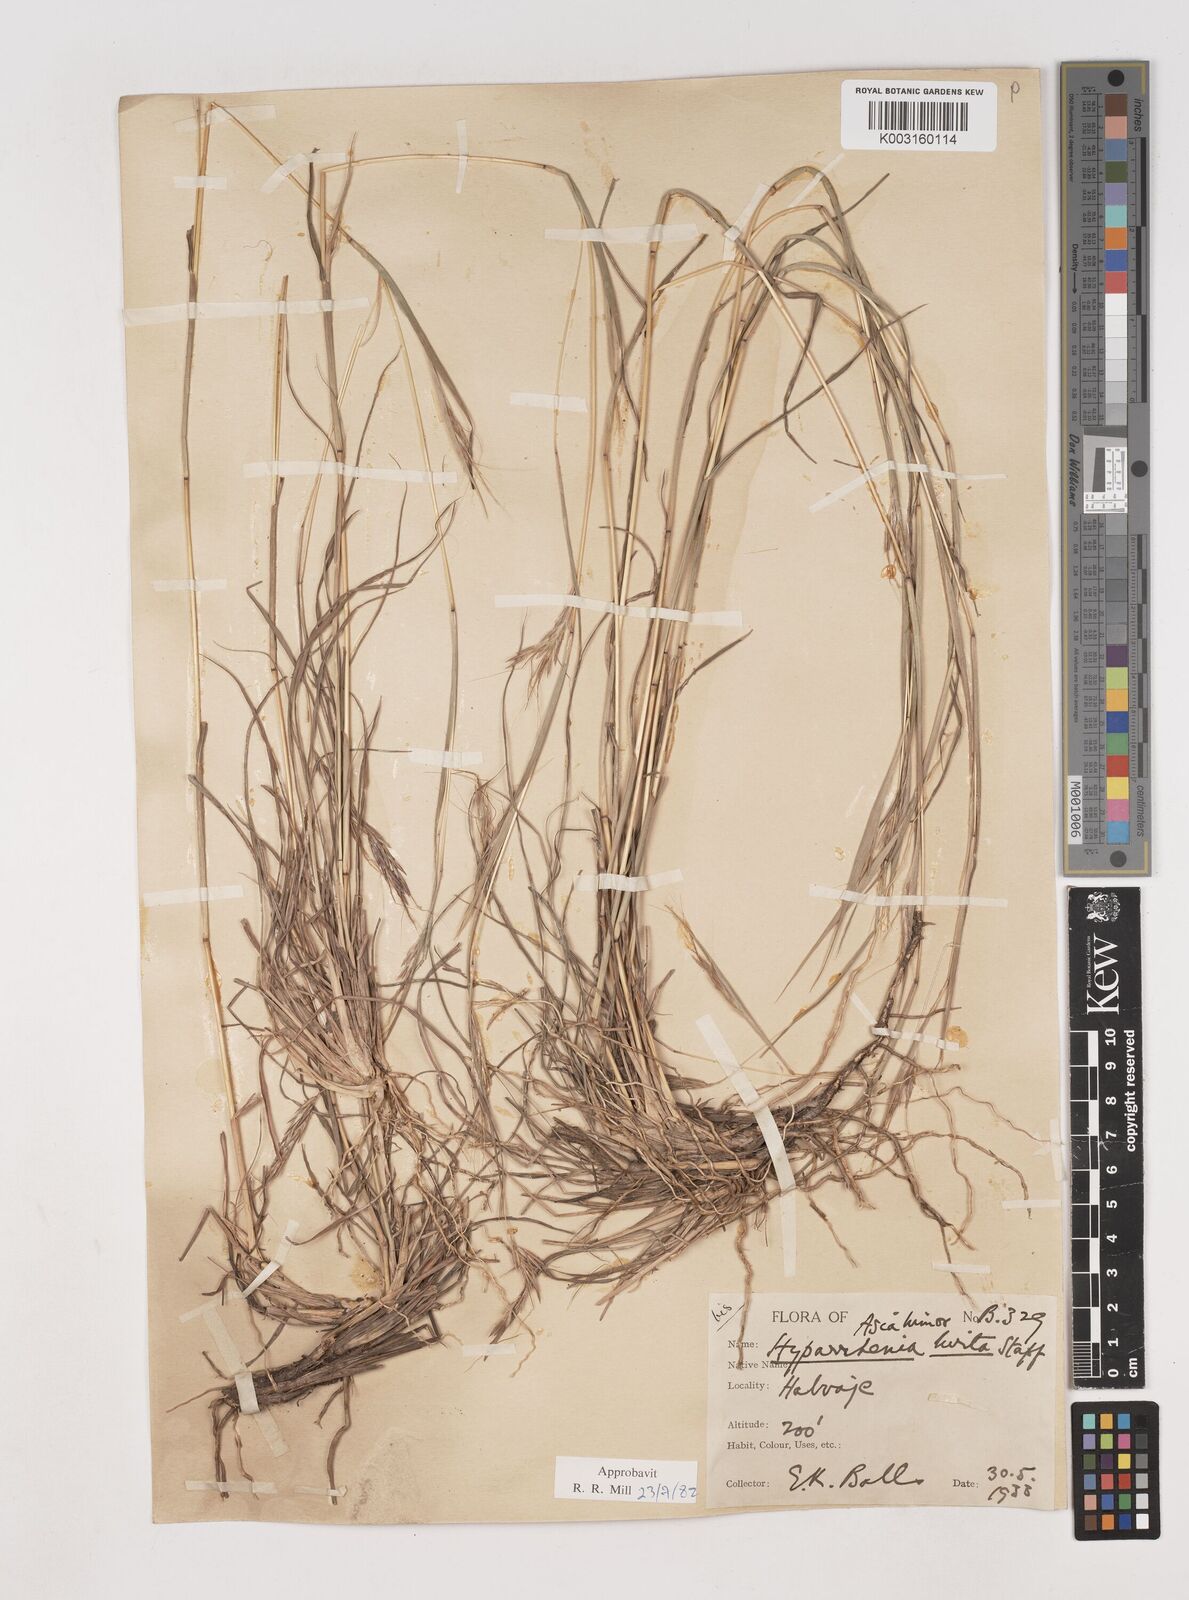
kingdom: Plantae
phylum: Tracheophyta
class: Liliopsida
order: Poales
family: Poaceae
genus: Hyparrhenia
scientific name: Hyparrhenia hirta
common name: Thatching grass
